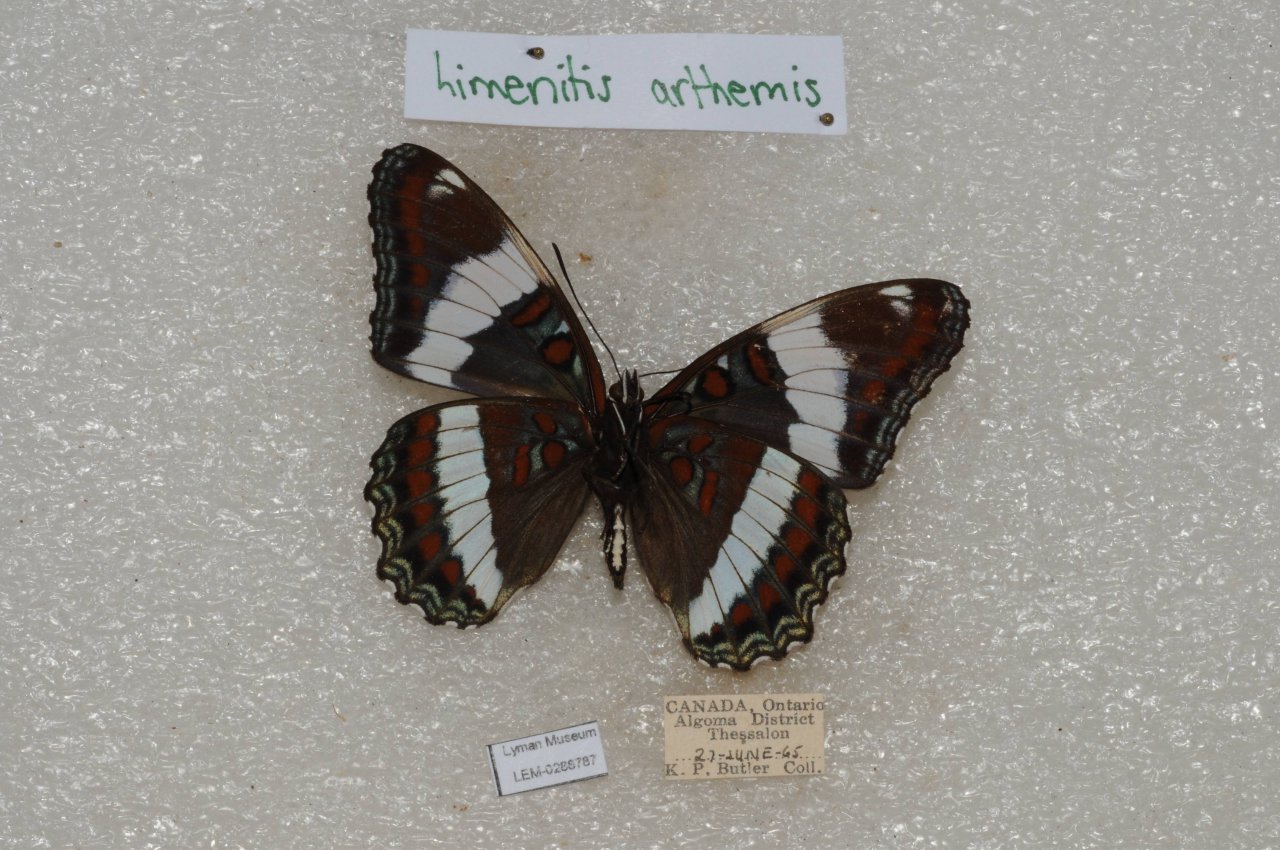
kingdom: Animalia
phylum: Arthropoda
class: Insecta
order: Lepidoptera
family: Nymphalidae
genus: Limenitis
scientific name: Limenitis arthemis
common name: Red-spotted Admiral
